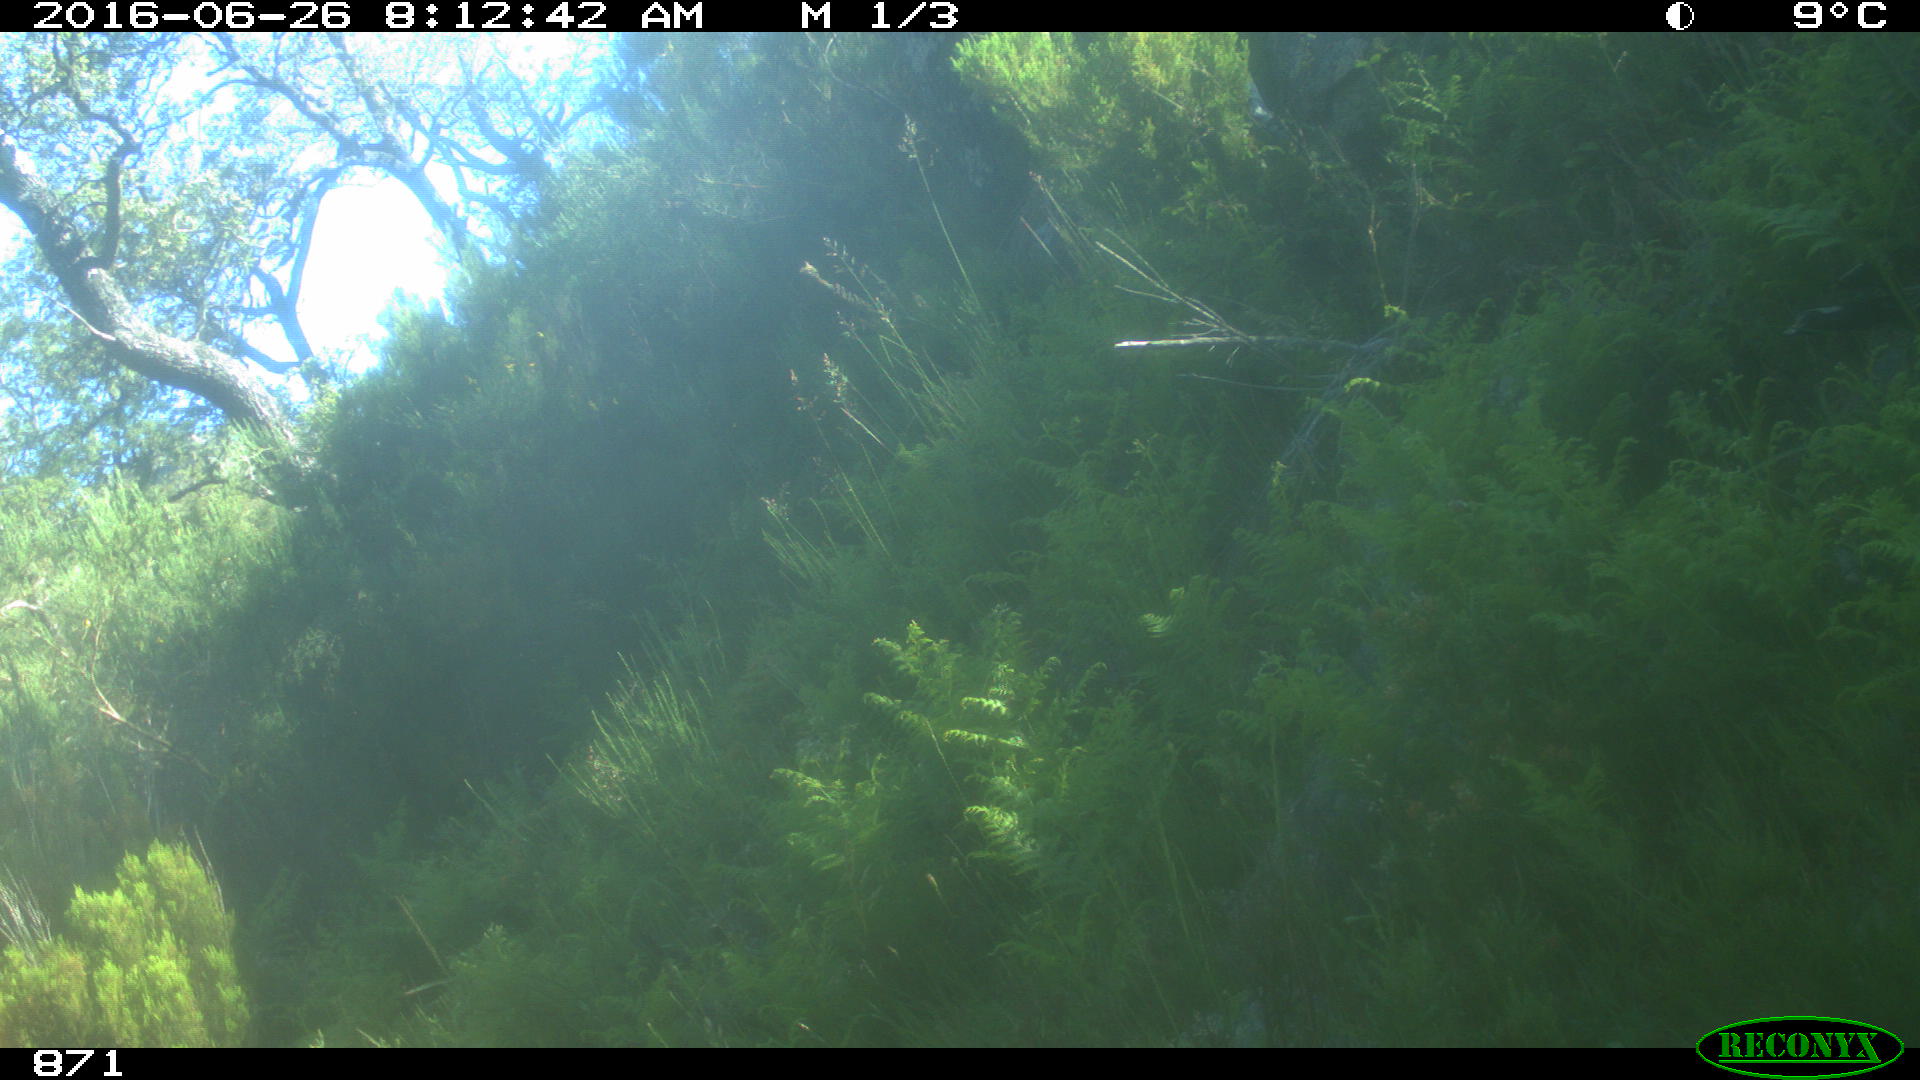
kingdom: Animalia
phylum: Chordata
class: Mammalia
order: Artiodactyla
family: Bovidae
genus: Bos
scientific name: Bos taurus
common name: Domesticated cattle
